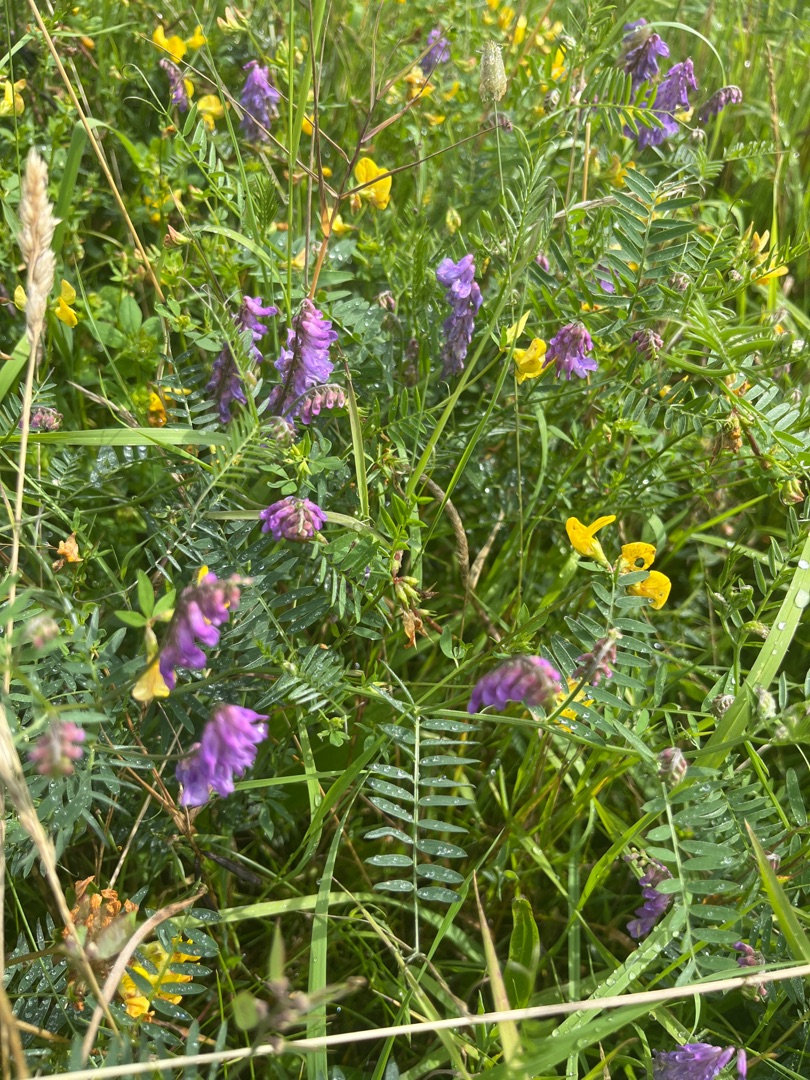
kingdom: Plantae
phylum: Tracheophyta
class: Magnoliopsida
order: Fabales
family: Fabaceae
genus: Vicia
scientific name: Vicia cracca
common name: Muse-vikke
